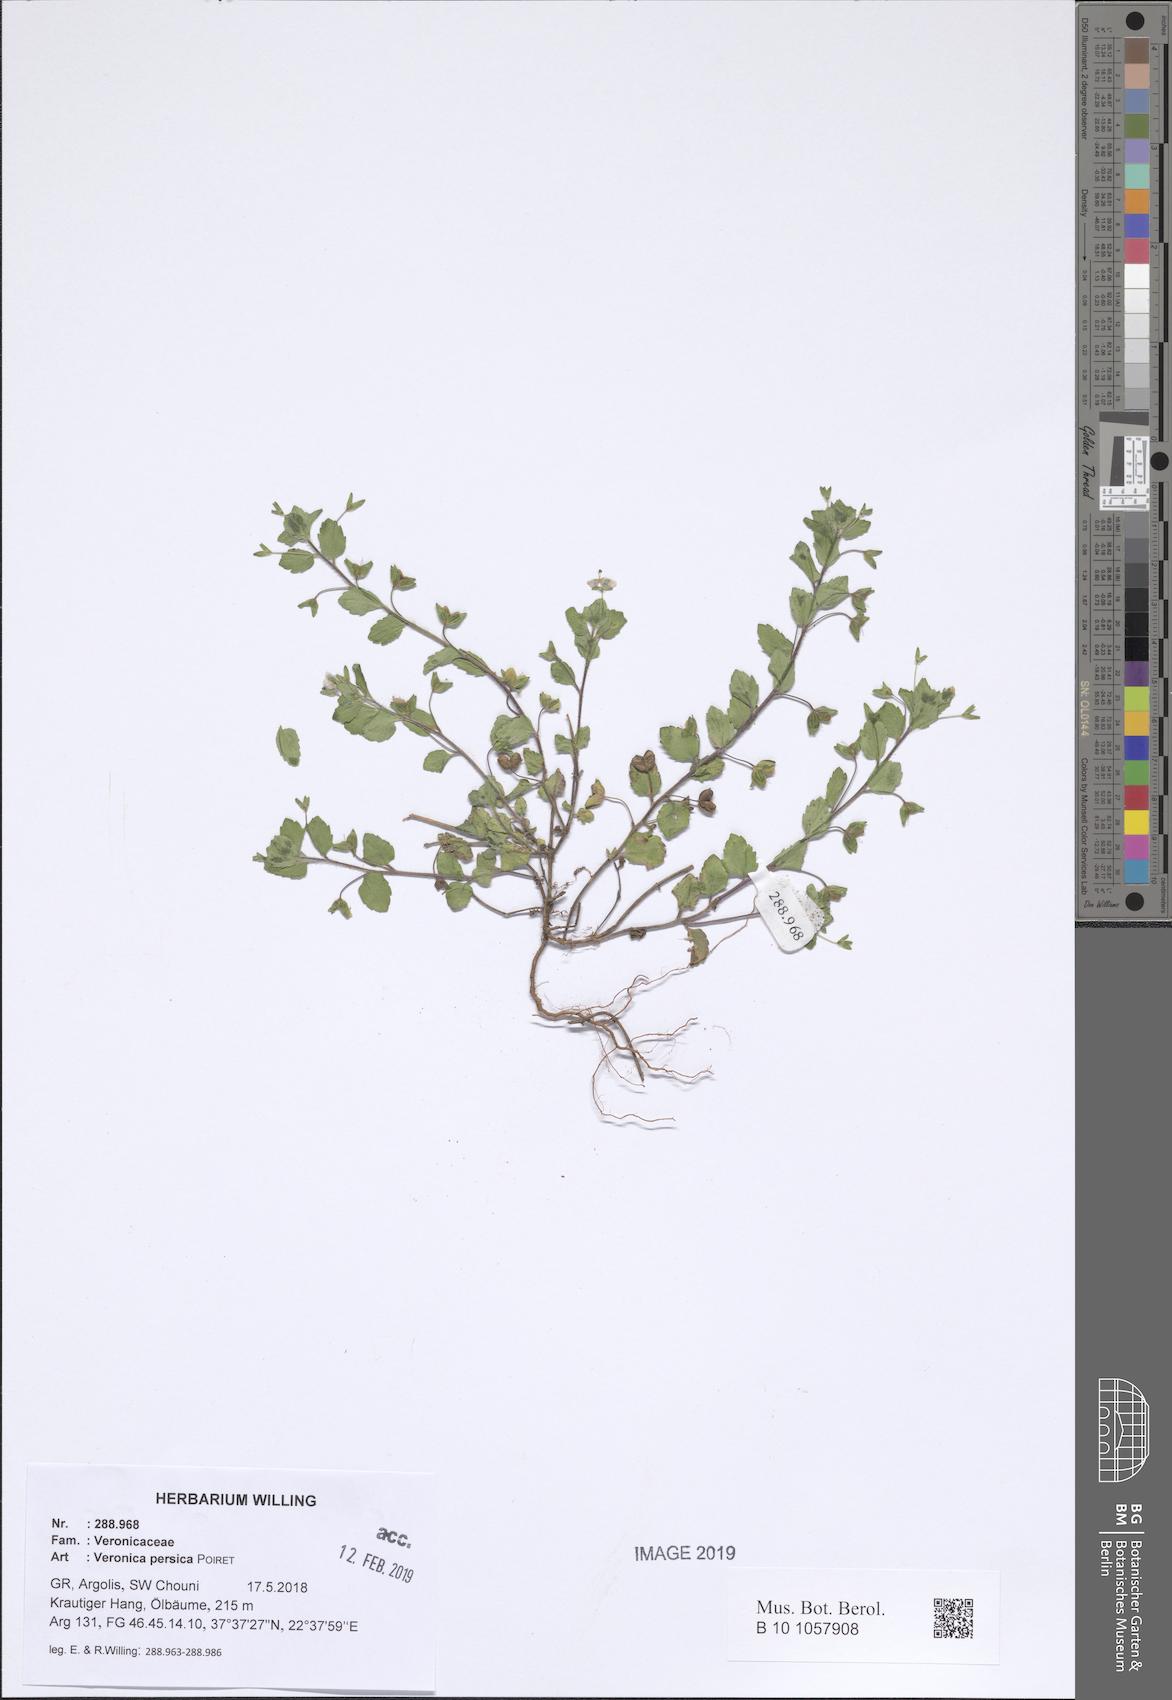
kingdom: Plantae
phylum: Tracheophyta
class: Magnoliopsida
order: Lamiales
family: Plantaginaceae
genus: Veronica
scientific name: Veronica persica
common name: Common field-speedwell
